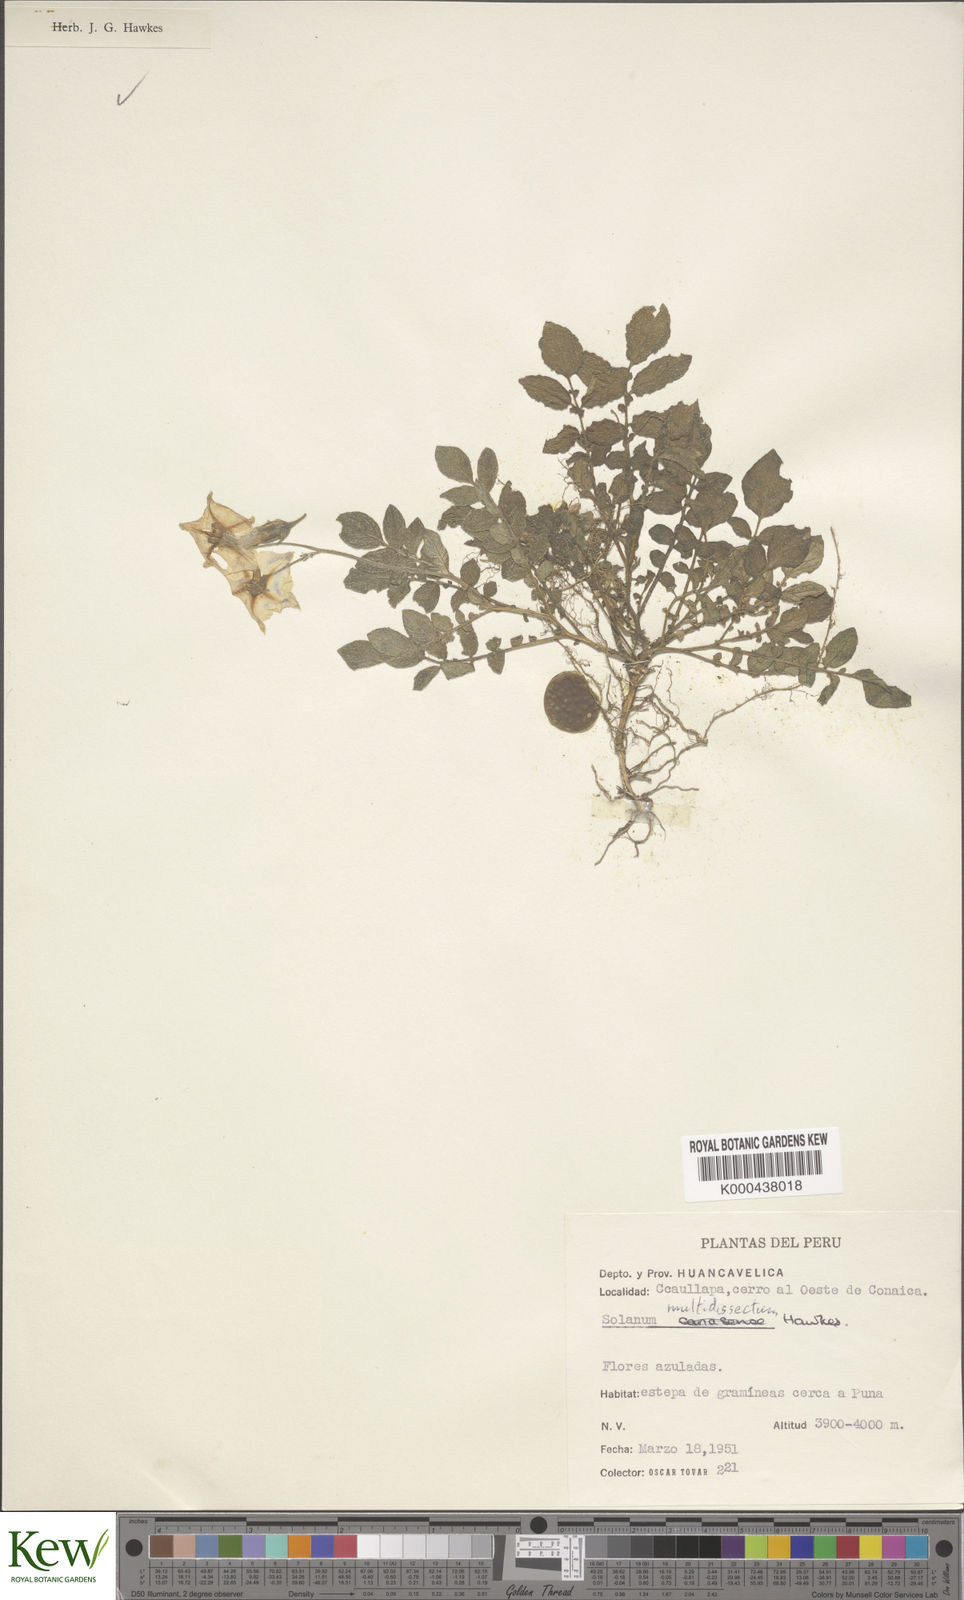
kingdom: Plantae
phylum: Tracheophyta
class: Magnoliopsida
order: Solanales
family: Solanaceae
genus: Solanum
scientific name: Solanum candolleanum
